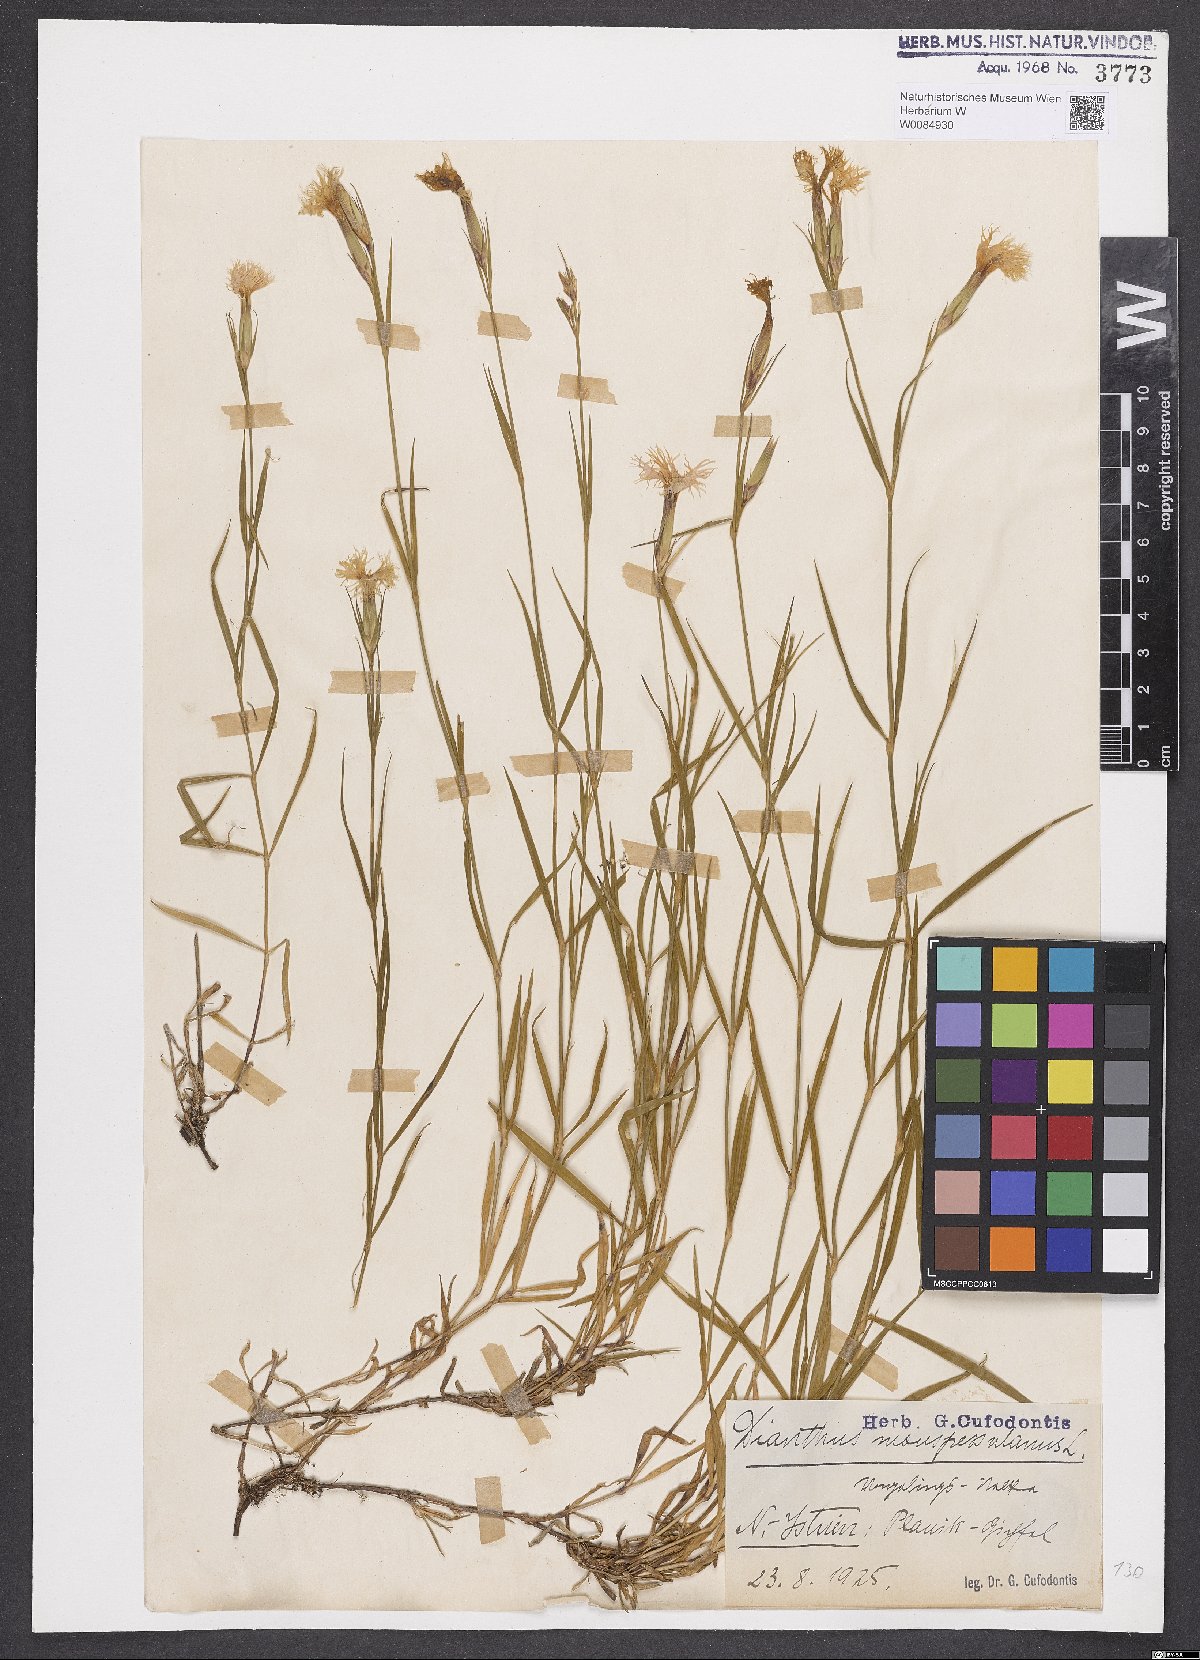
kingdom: Plantae
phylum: Tracheophyta
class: Magnoliopsida
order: Caryophyllales
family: Caryophyllaceae
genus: Dianthus
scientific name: Dianthus hyssopifolius
